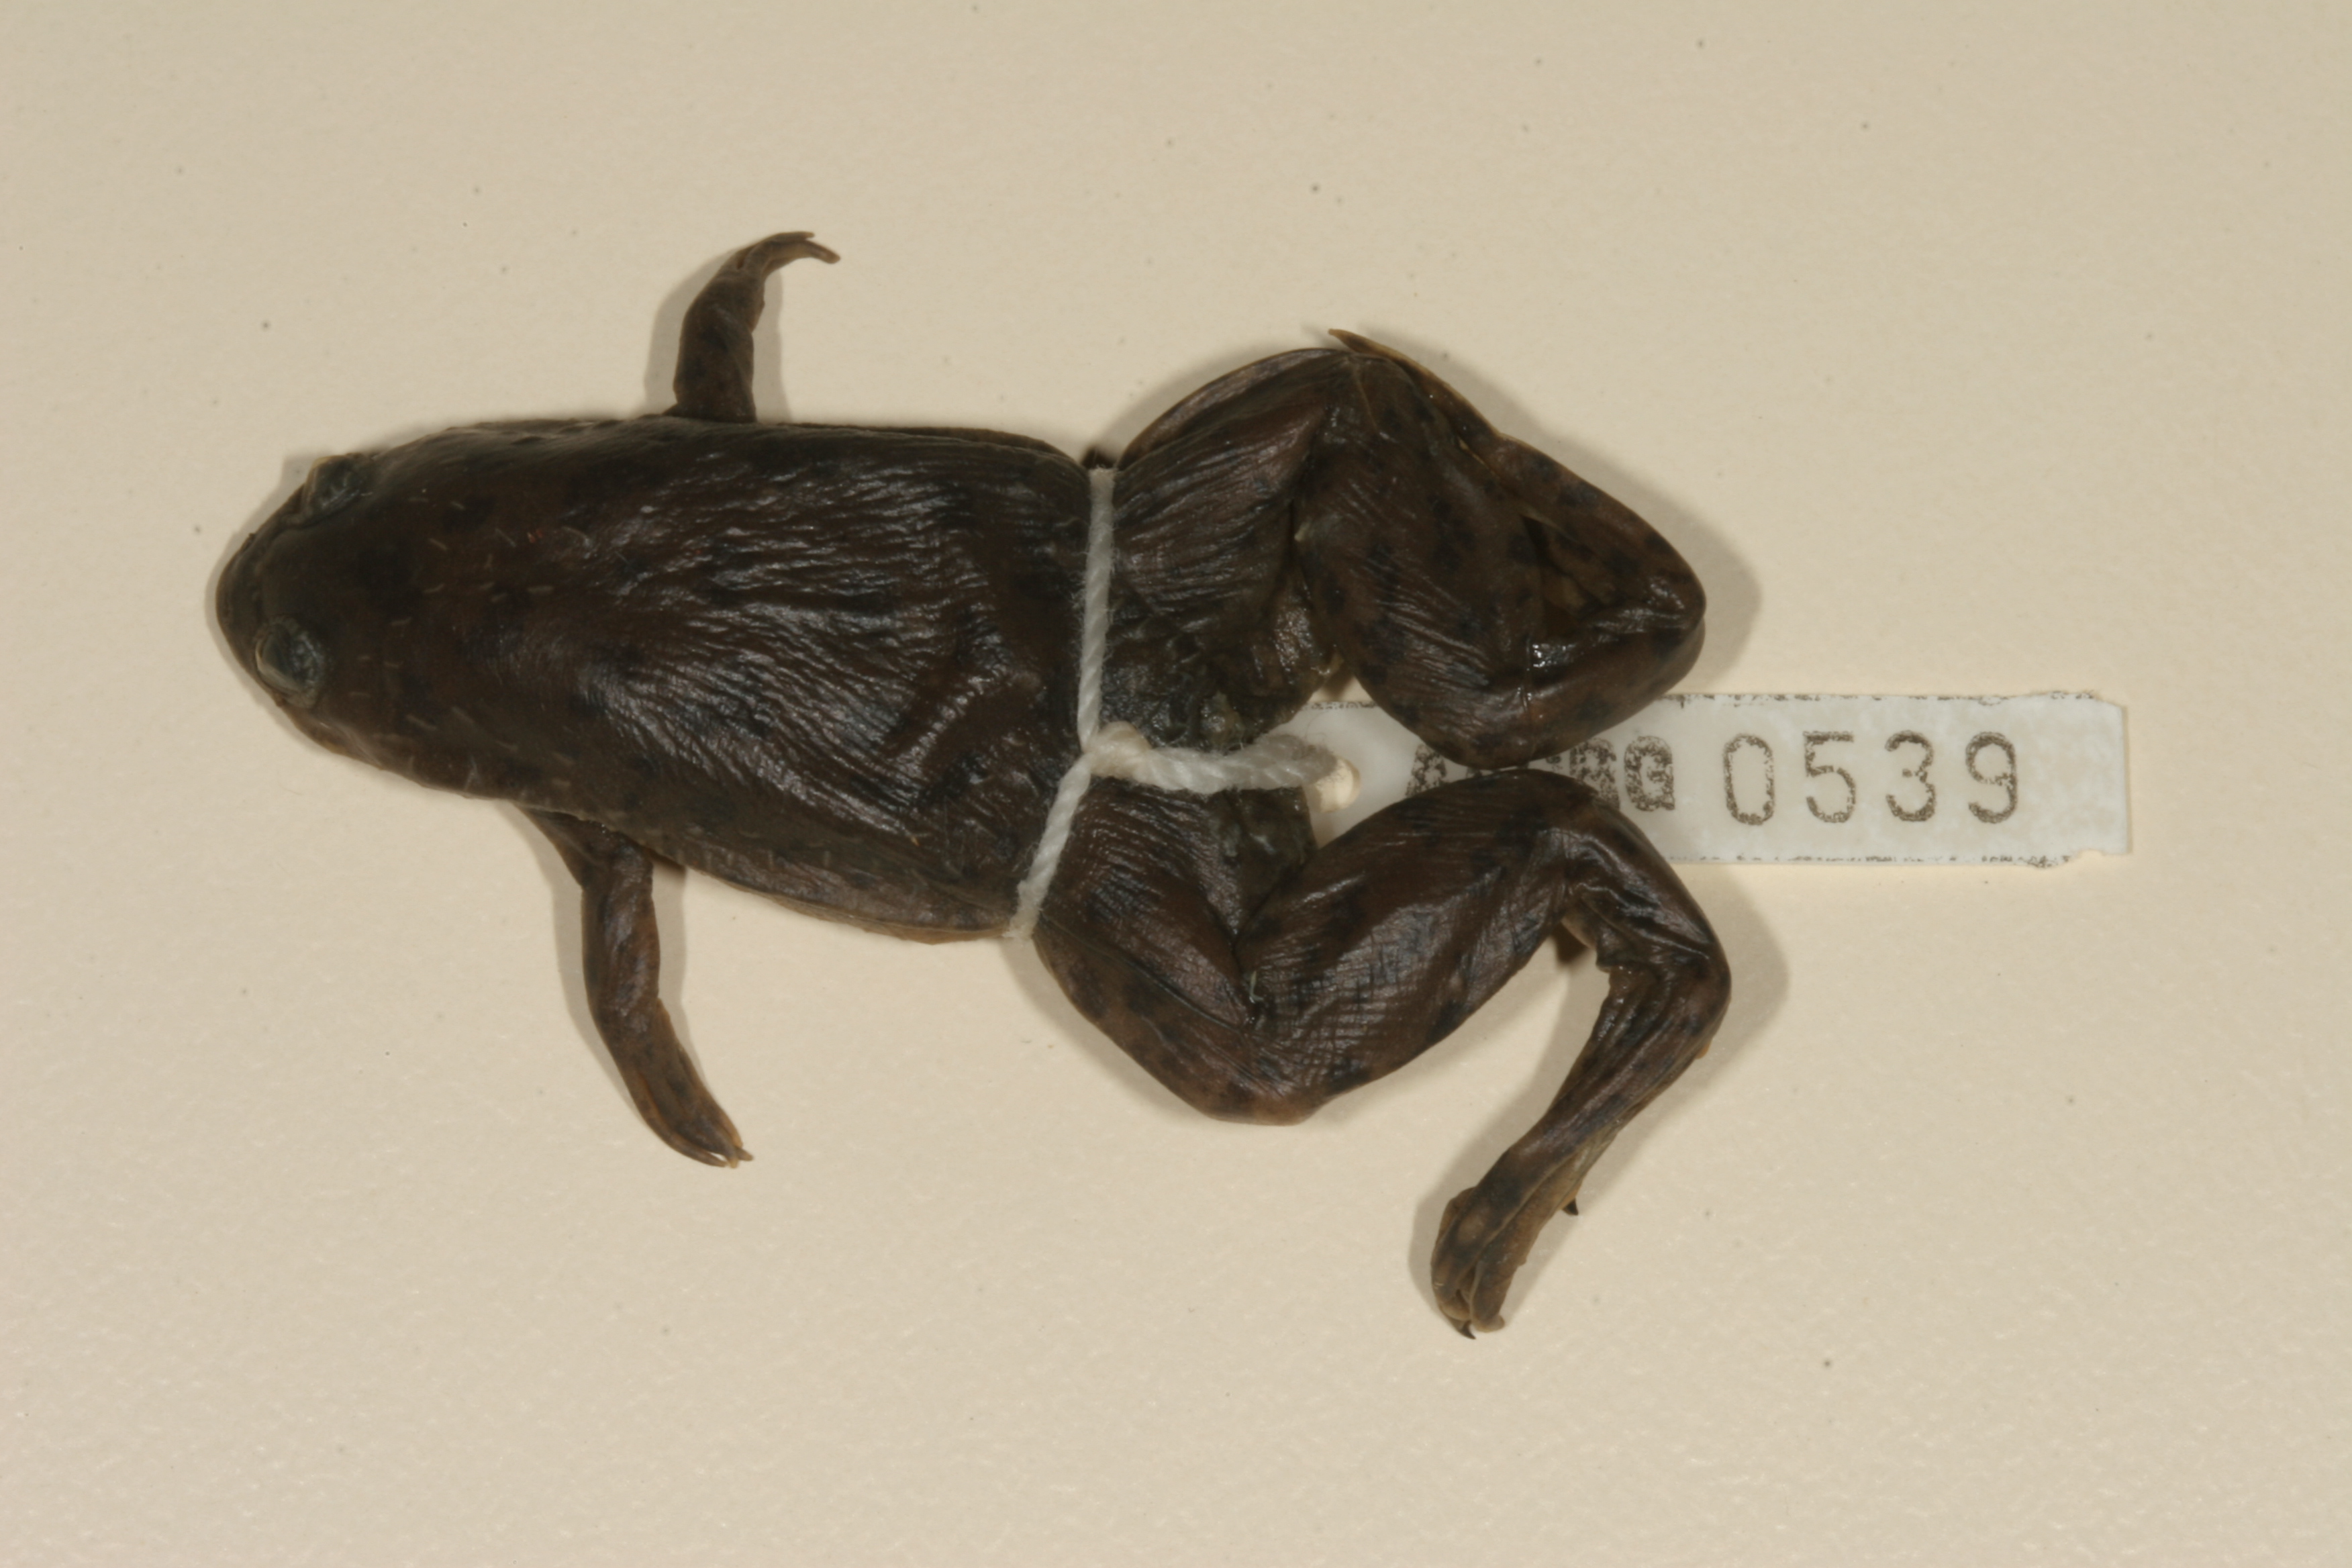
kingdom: Animalia
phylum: Chordata
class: Amphibia
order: Anura
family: Pipidae
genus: Xenopus
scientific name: Xenopus laevis
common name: African clawed frog
